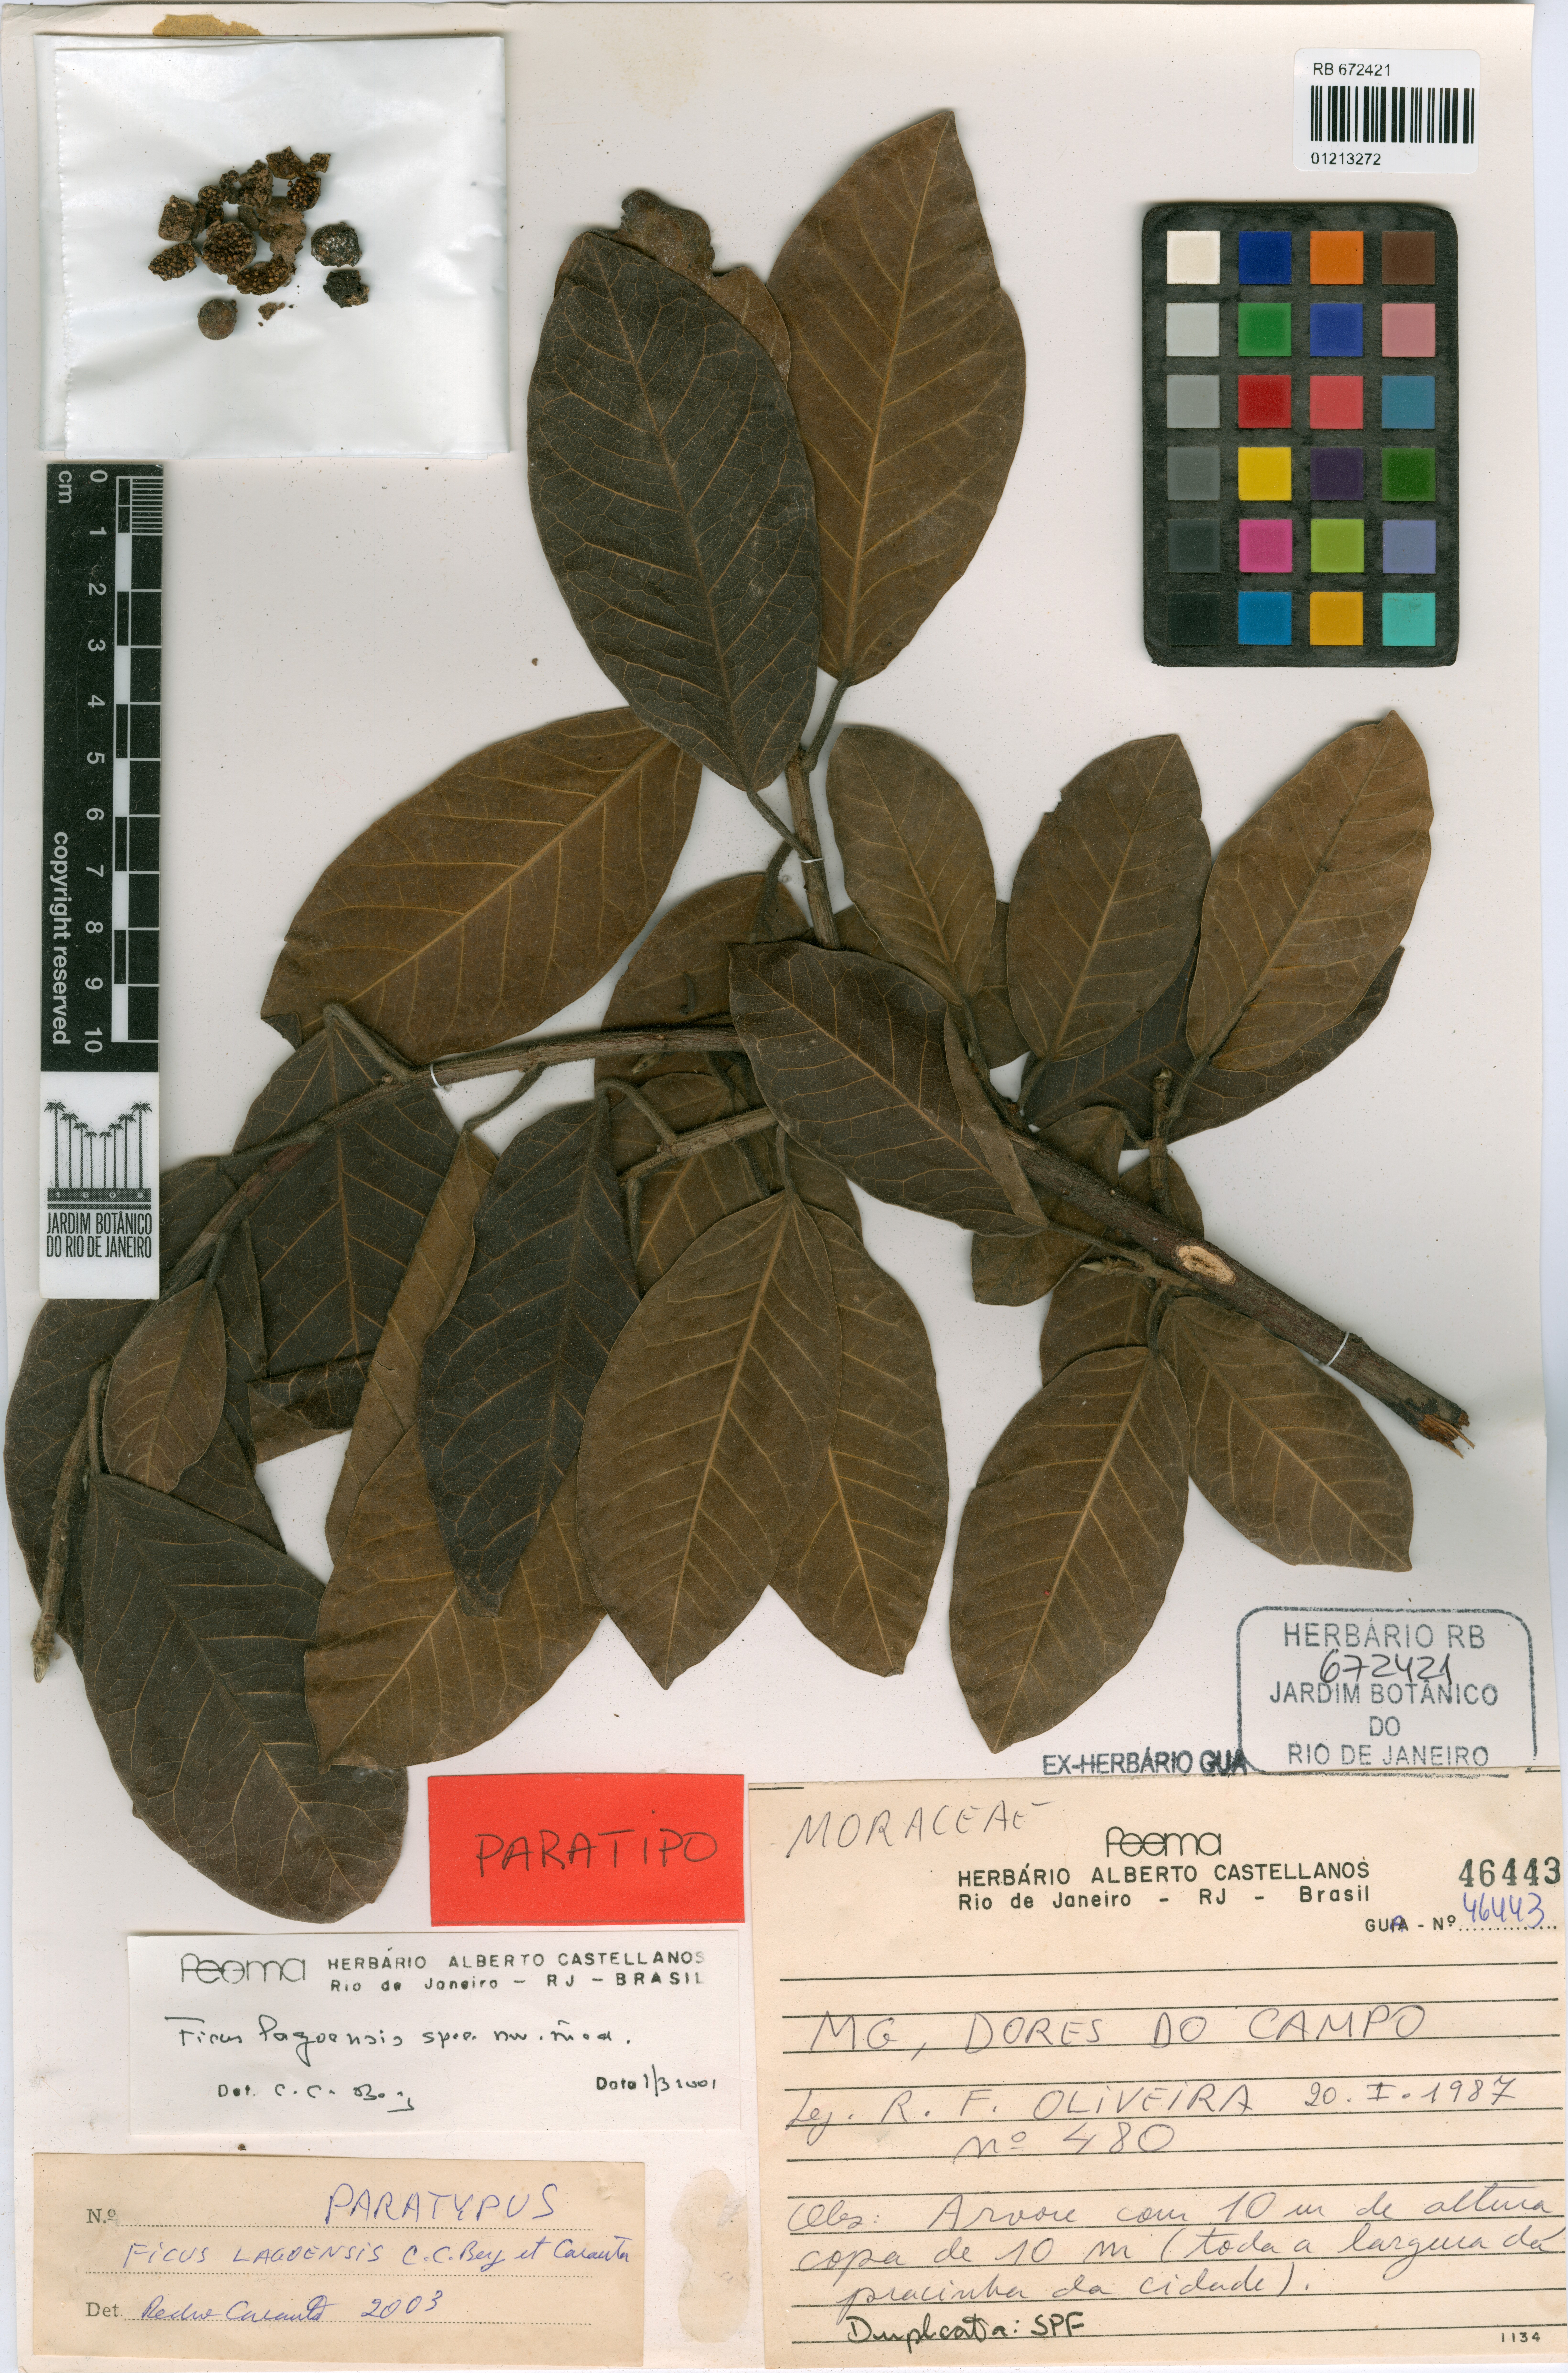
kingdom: Plantae
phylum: Tracheophyta
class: Magnoliopsida
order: Rosales
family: Moraceae
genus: Ficus
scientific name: Ficus lagoensis
